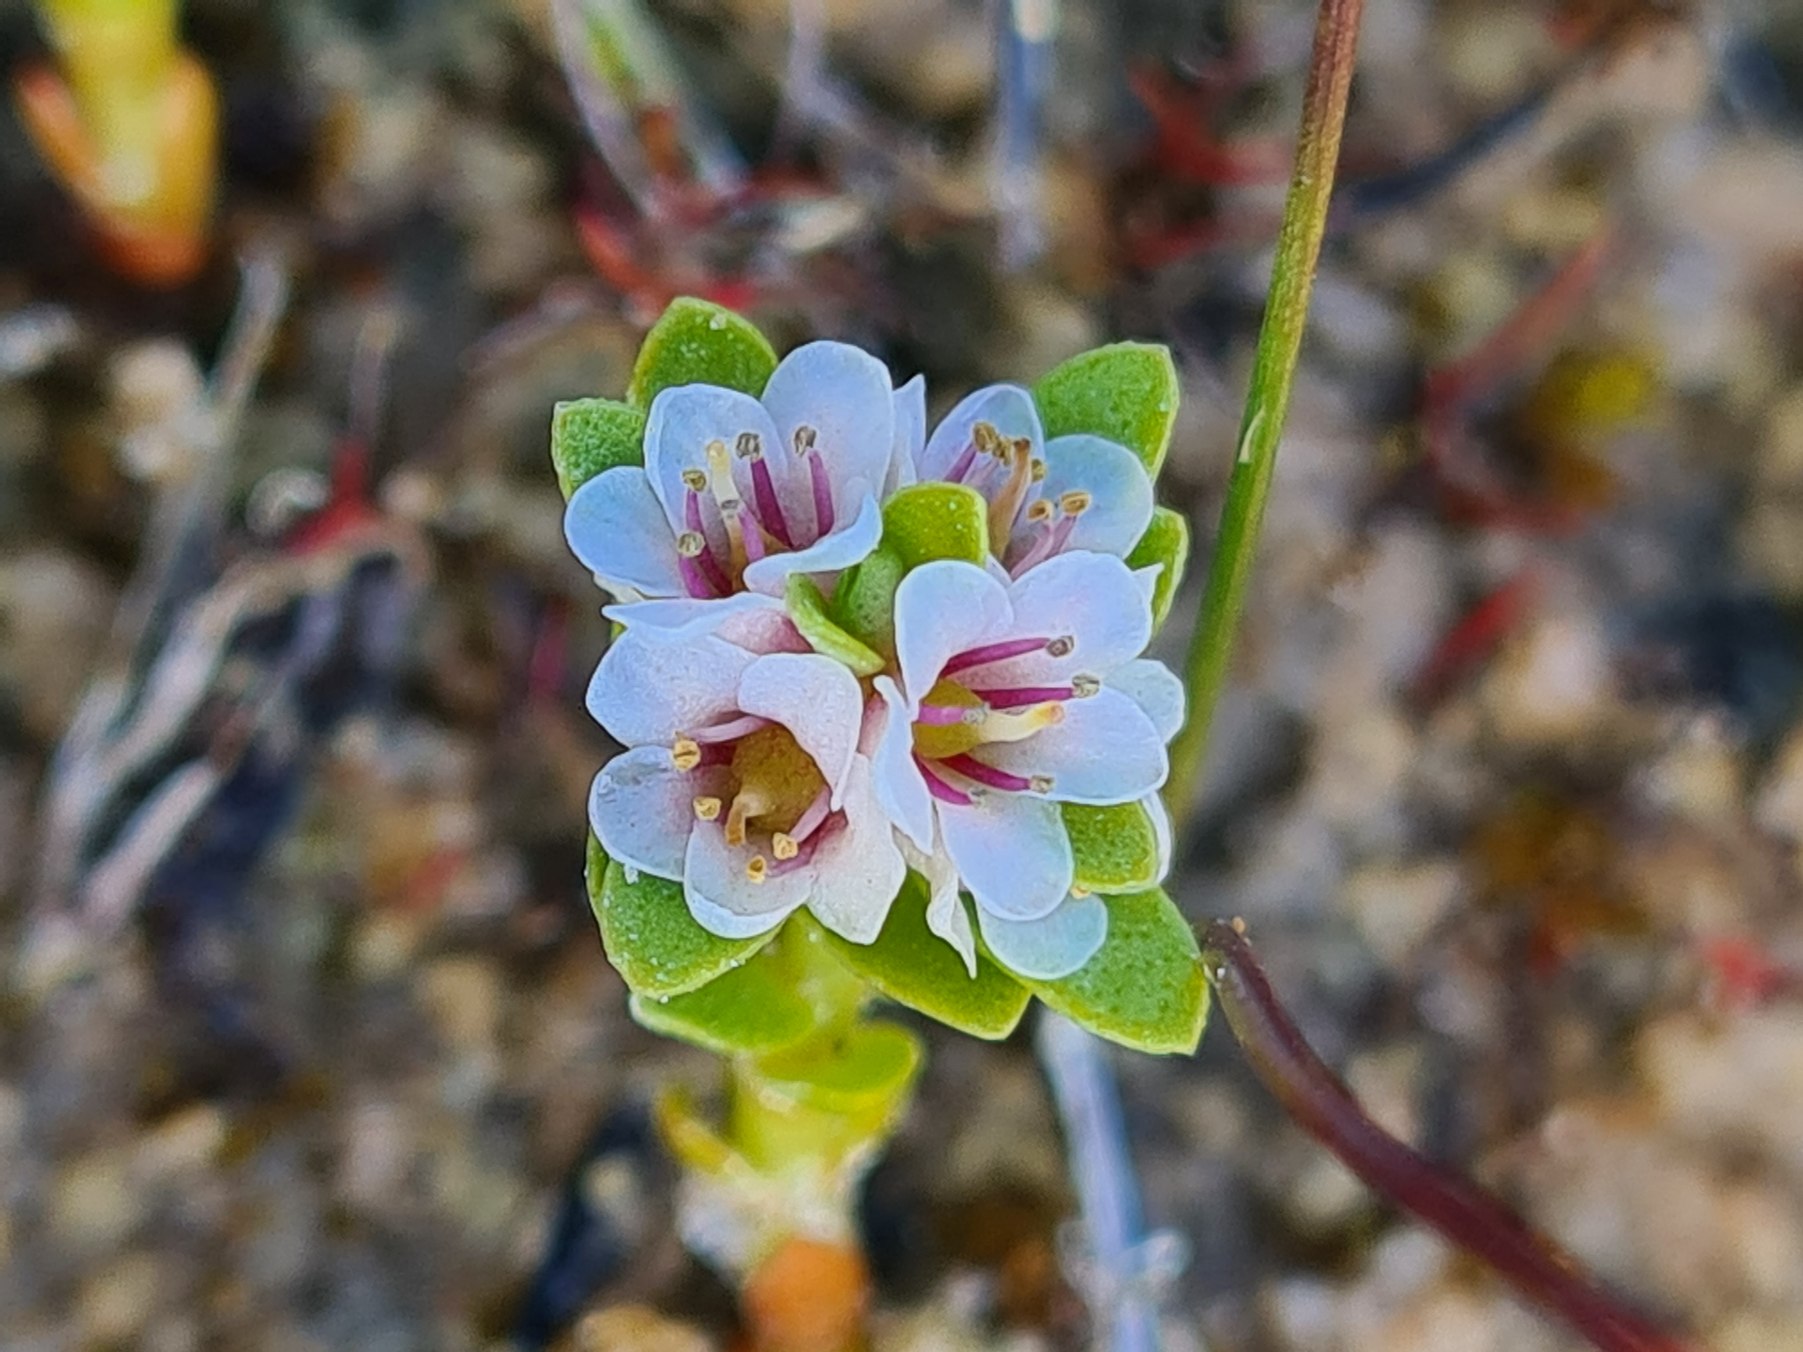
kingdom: Plantae
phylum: Tracheophyta
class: Magnoliopsida
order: Ericales
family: Primulaceae
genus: Lysimachia
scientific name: Lysimachia maritima
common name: Sandkryb
